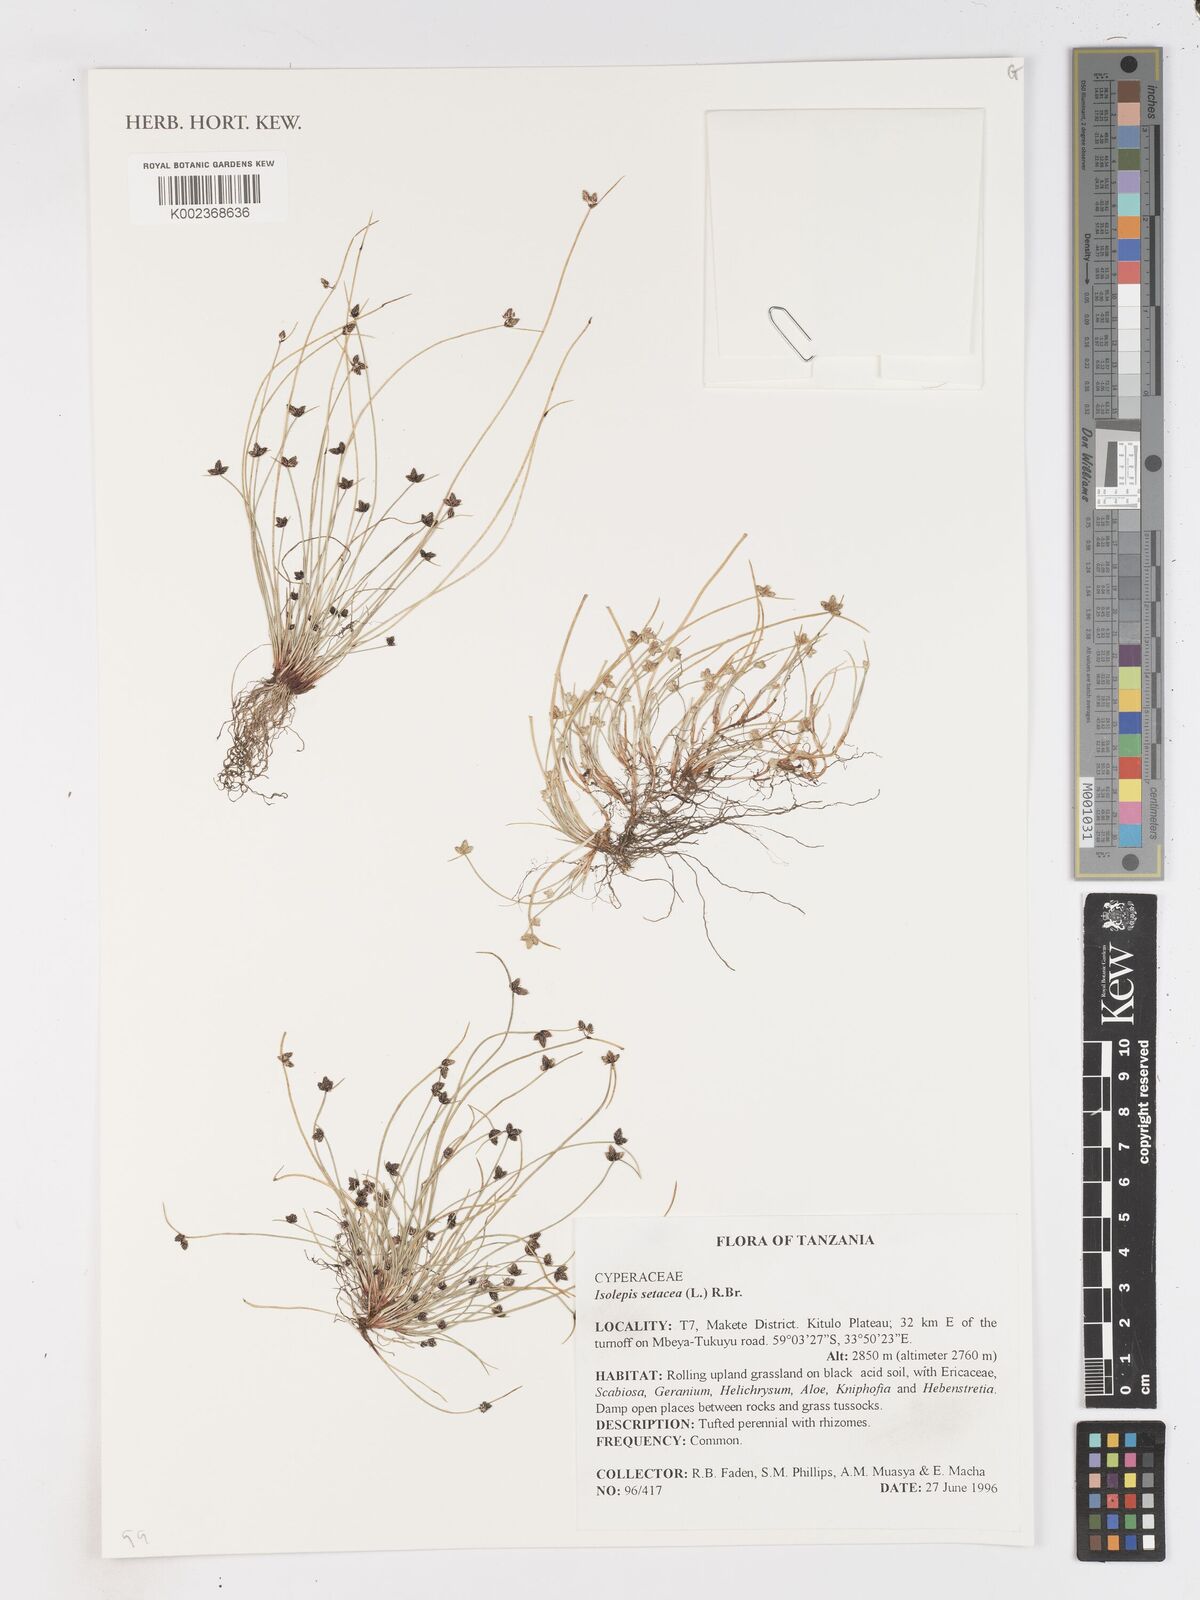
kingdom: Plantae
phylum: Tracheophyta
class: Liliopsida
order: Poales
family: Cyperaceae
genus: Isolepis
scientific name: Isolepis setacea
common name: Bristle club-rush
